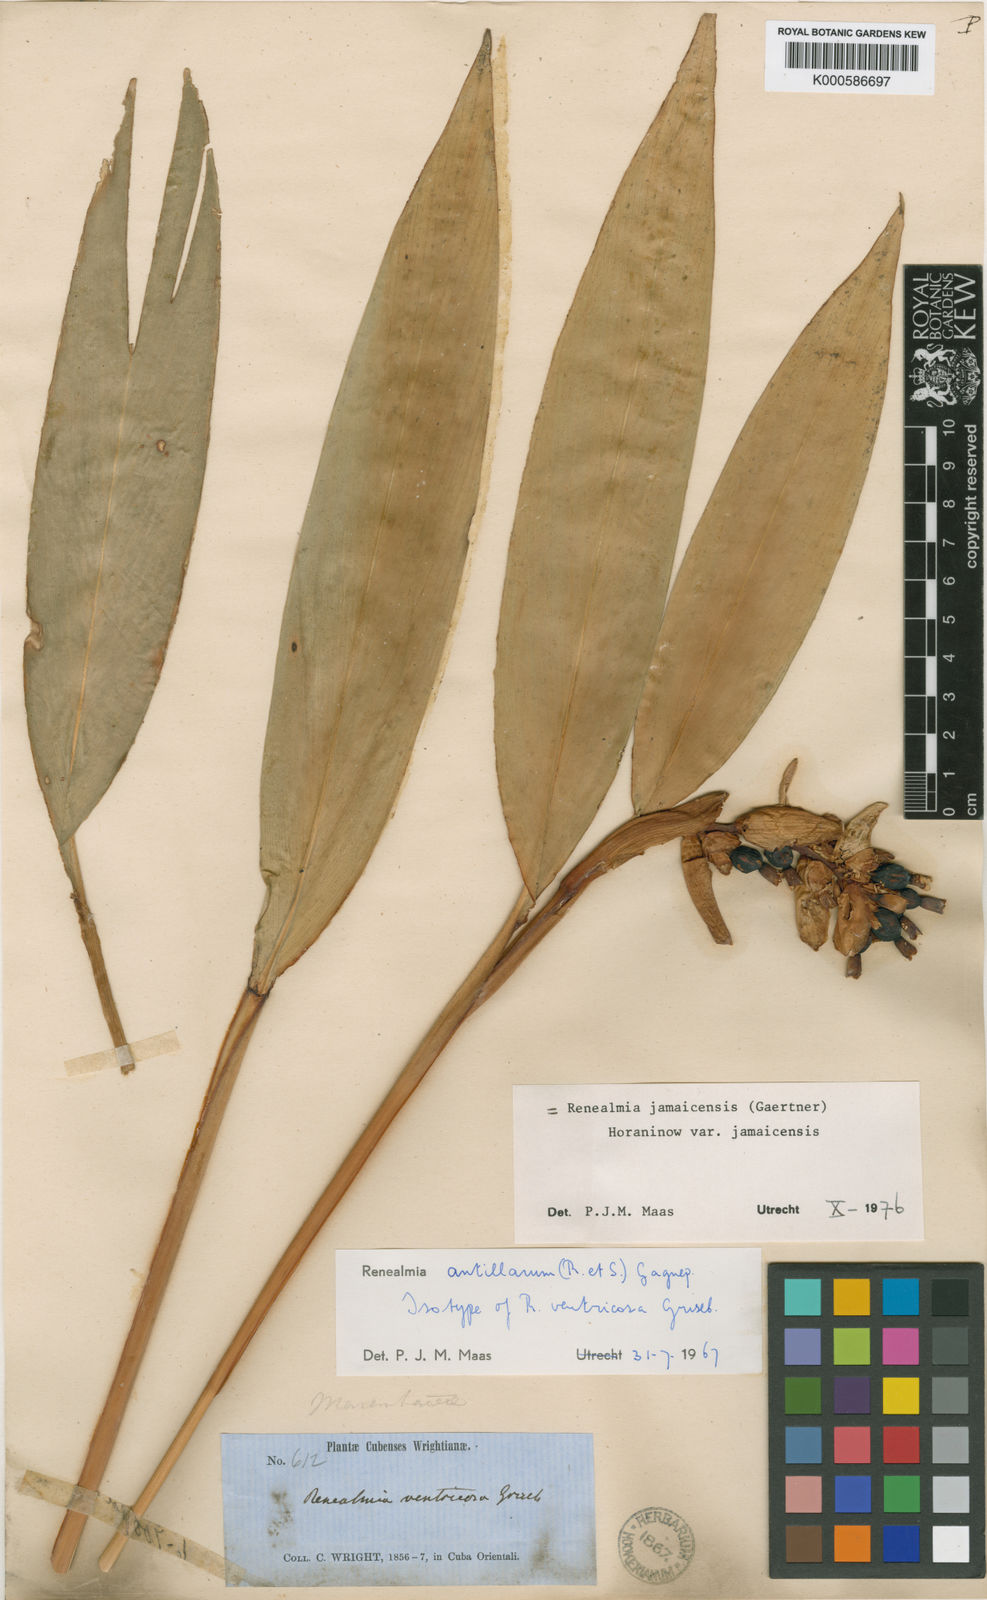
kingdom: Plantae
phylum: Tracheophyta
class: Liliopsida
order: Zingiberales
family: Zingiberaceae
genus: Renealmia
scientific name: Renealmia jamaicensis
